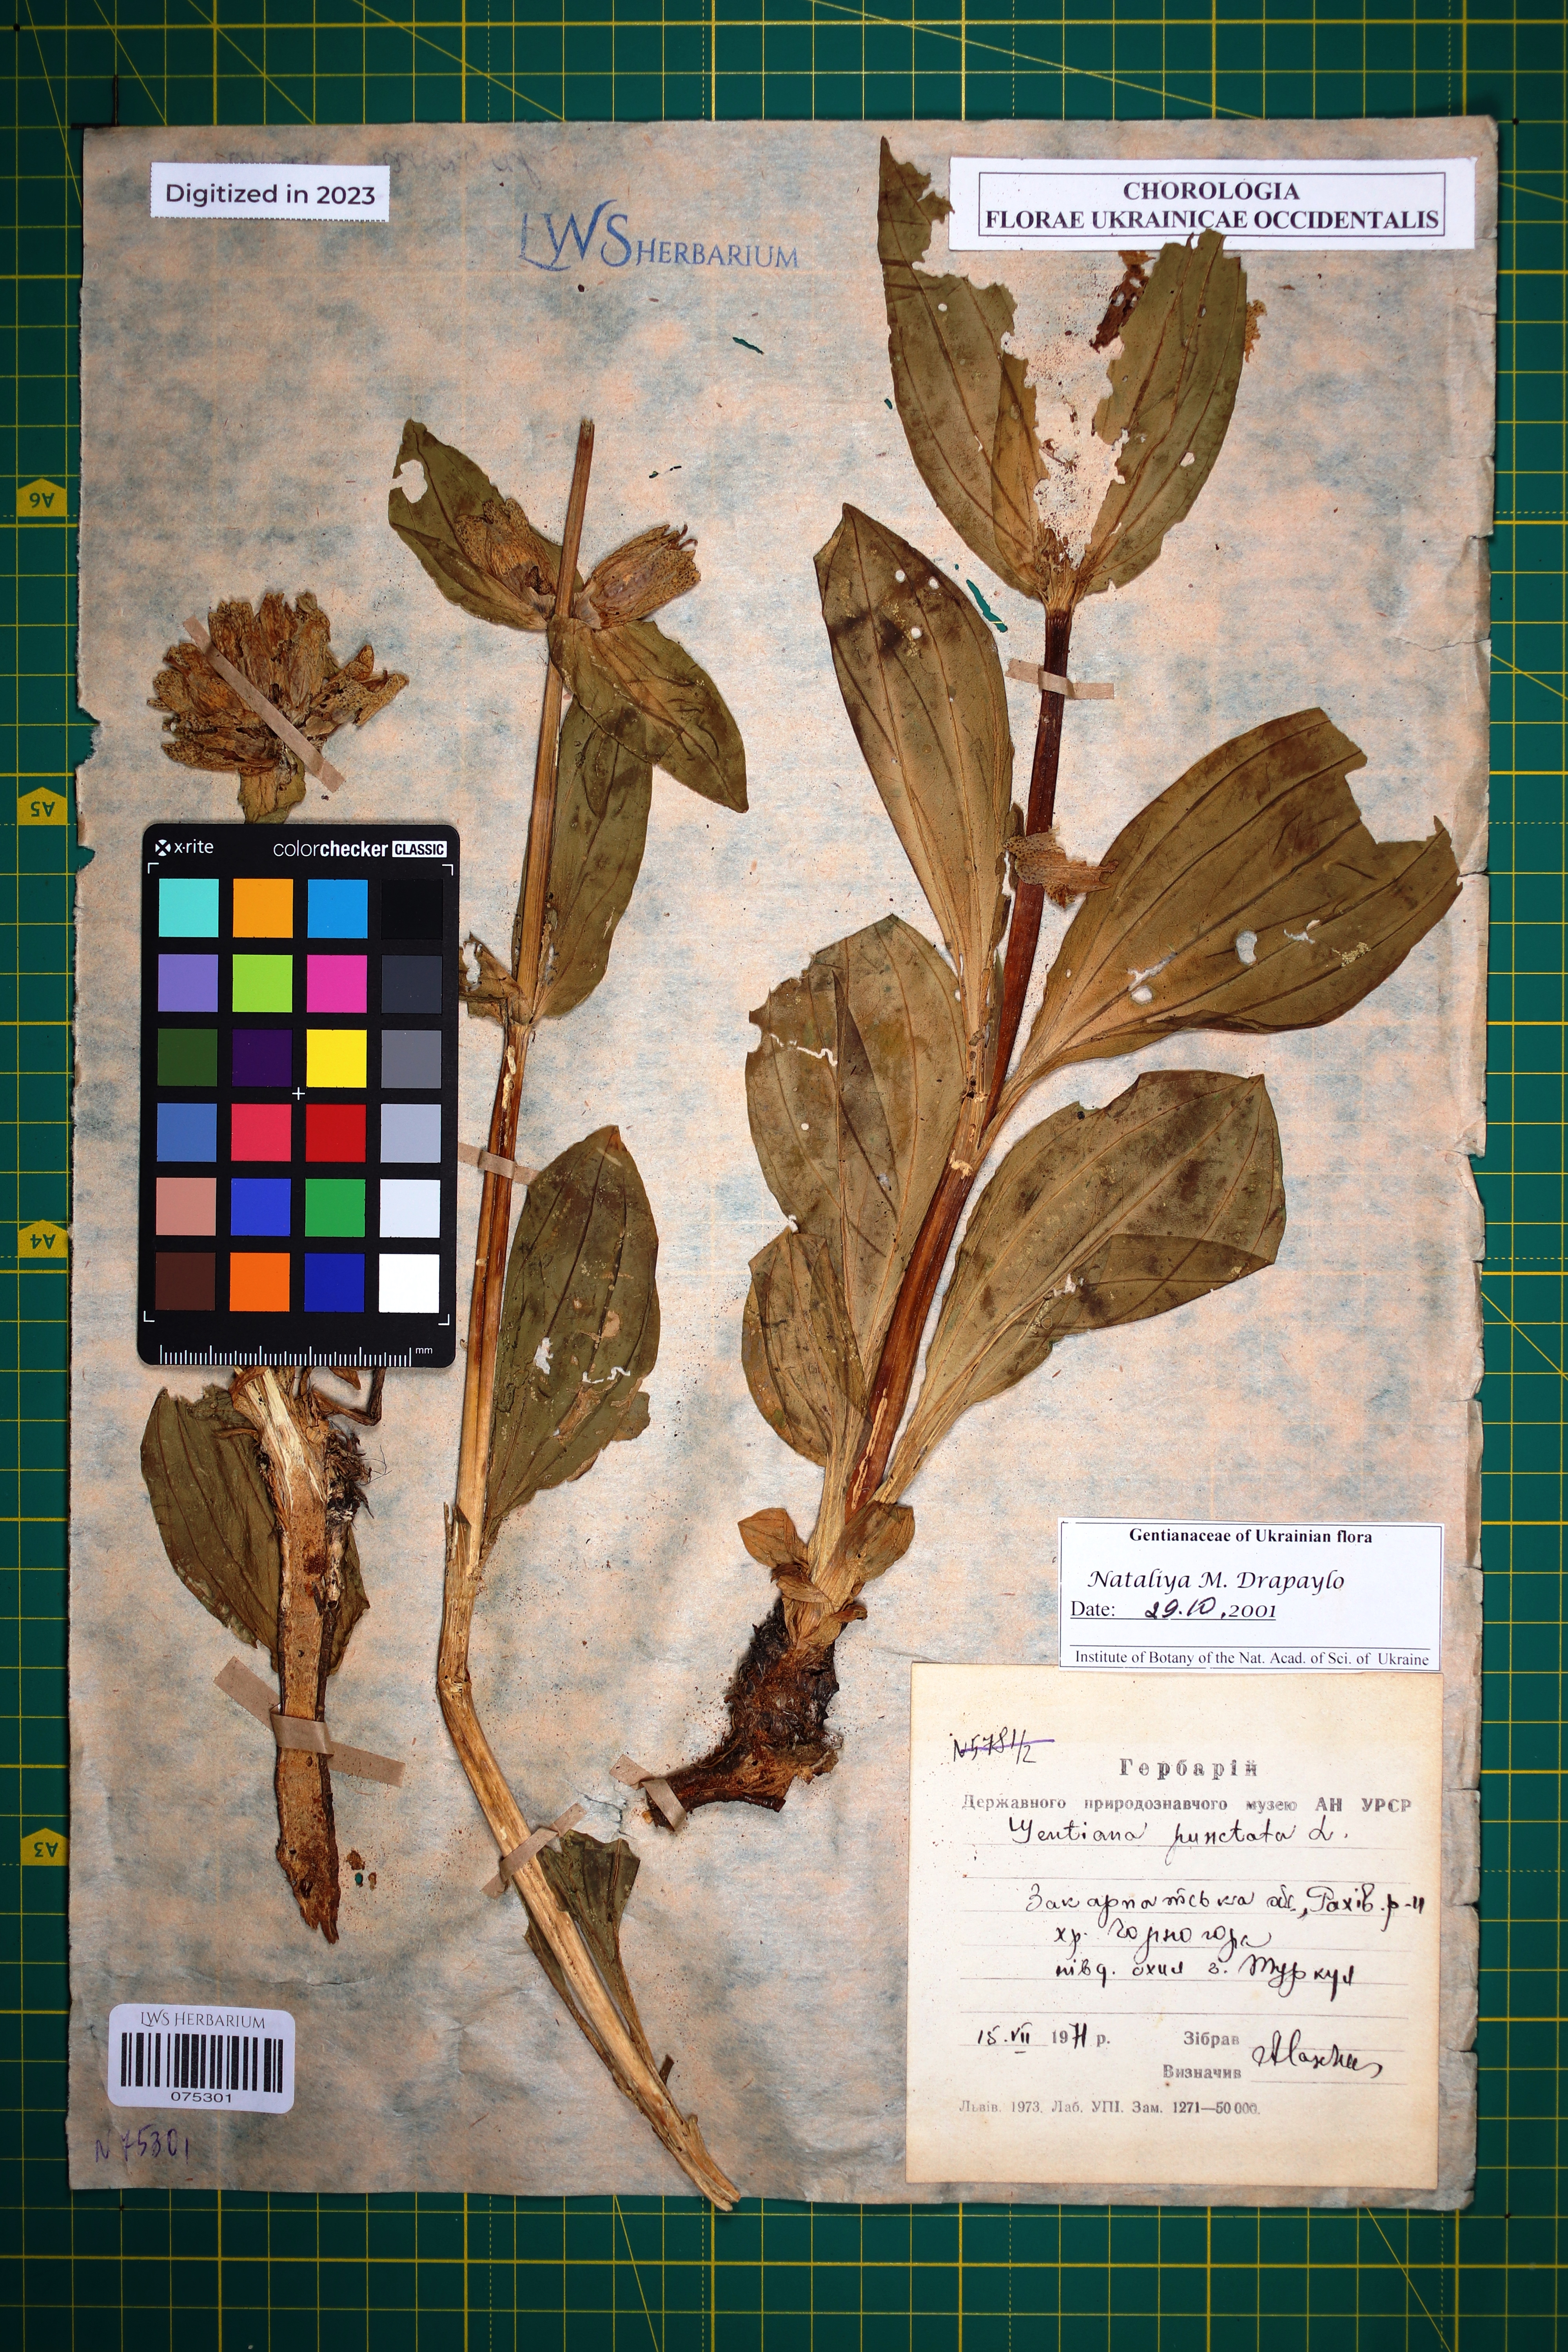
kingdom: Plantae
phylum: Tracheophyta
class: Magnoliopsida
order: Gentianales
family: Gentianaceae
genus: Gentiana
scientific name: Gentiana punctata
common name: Spotted gentian
